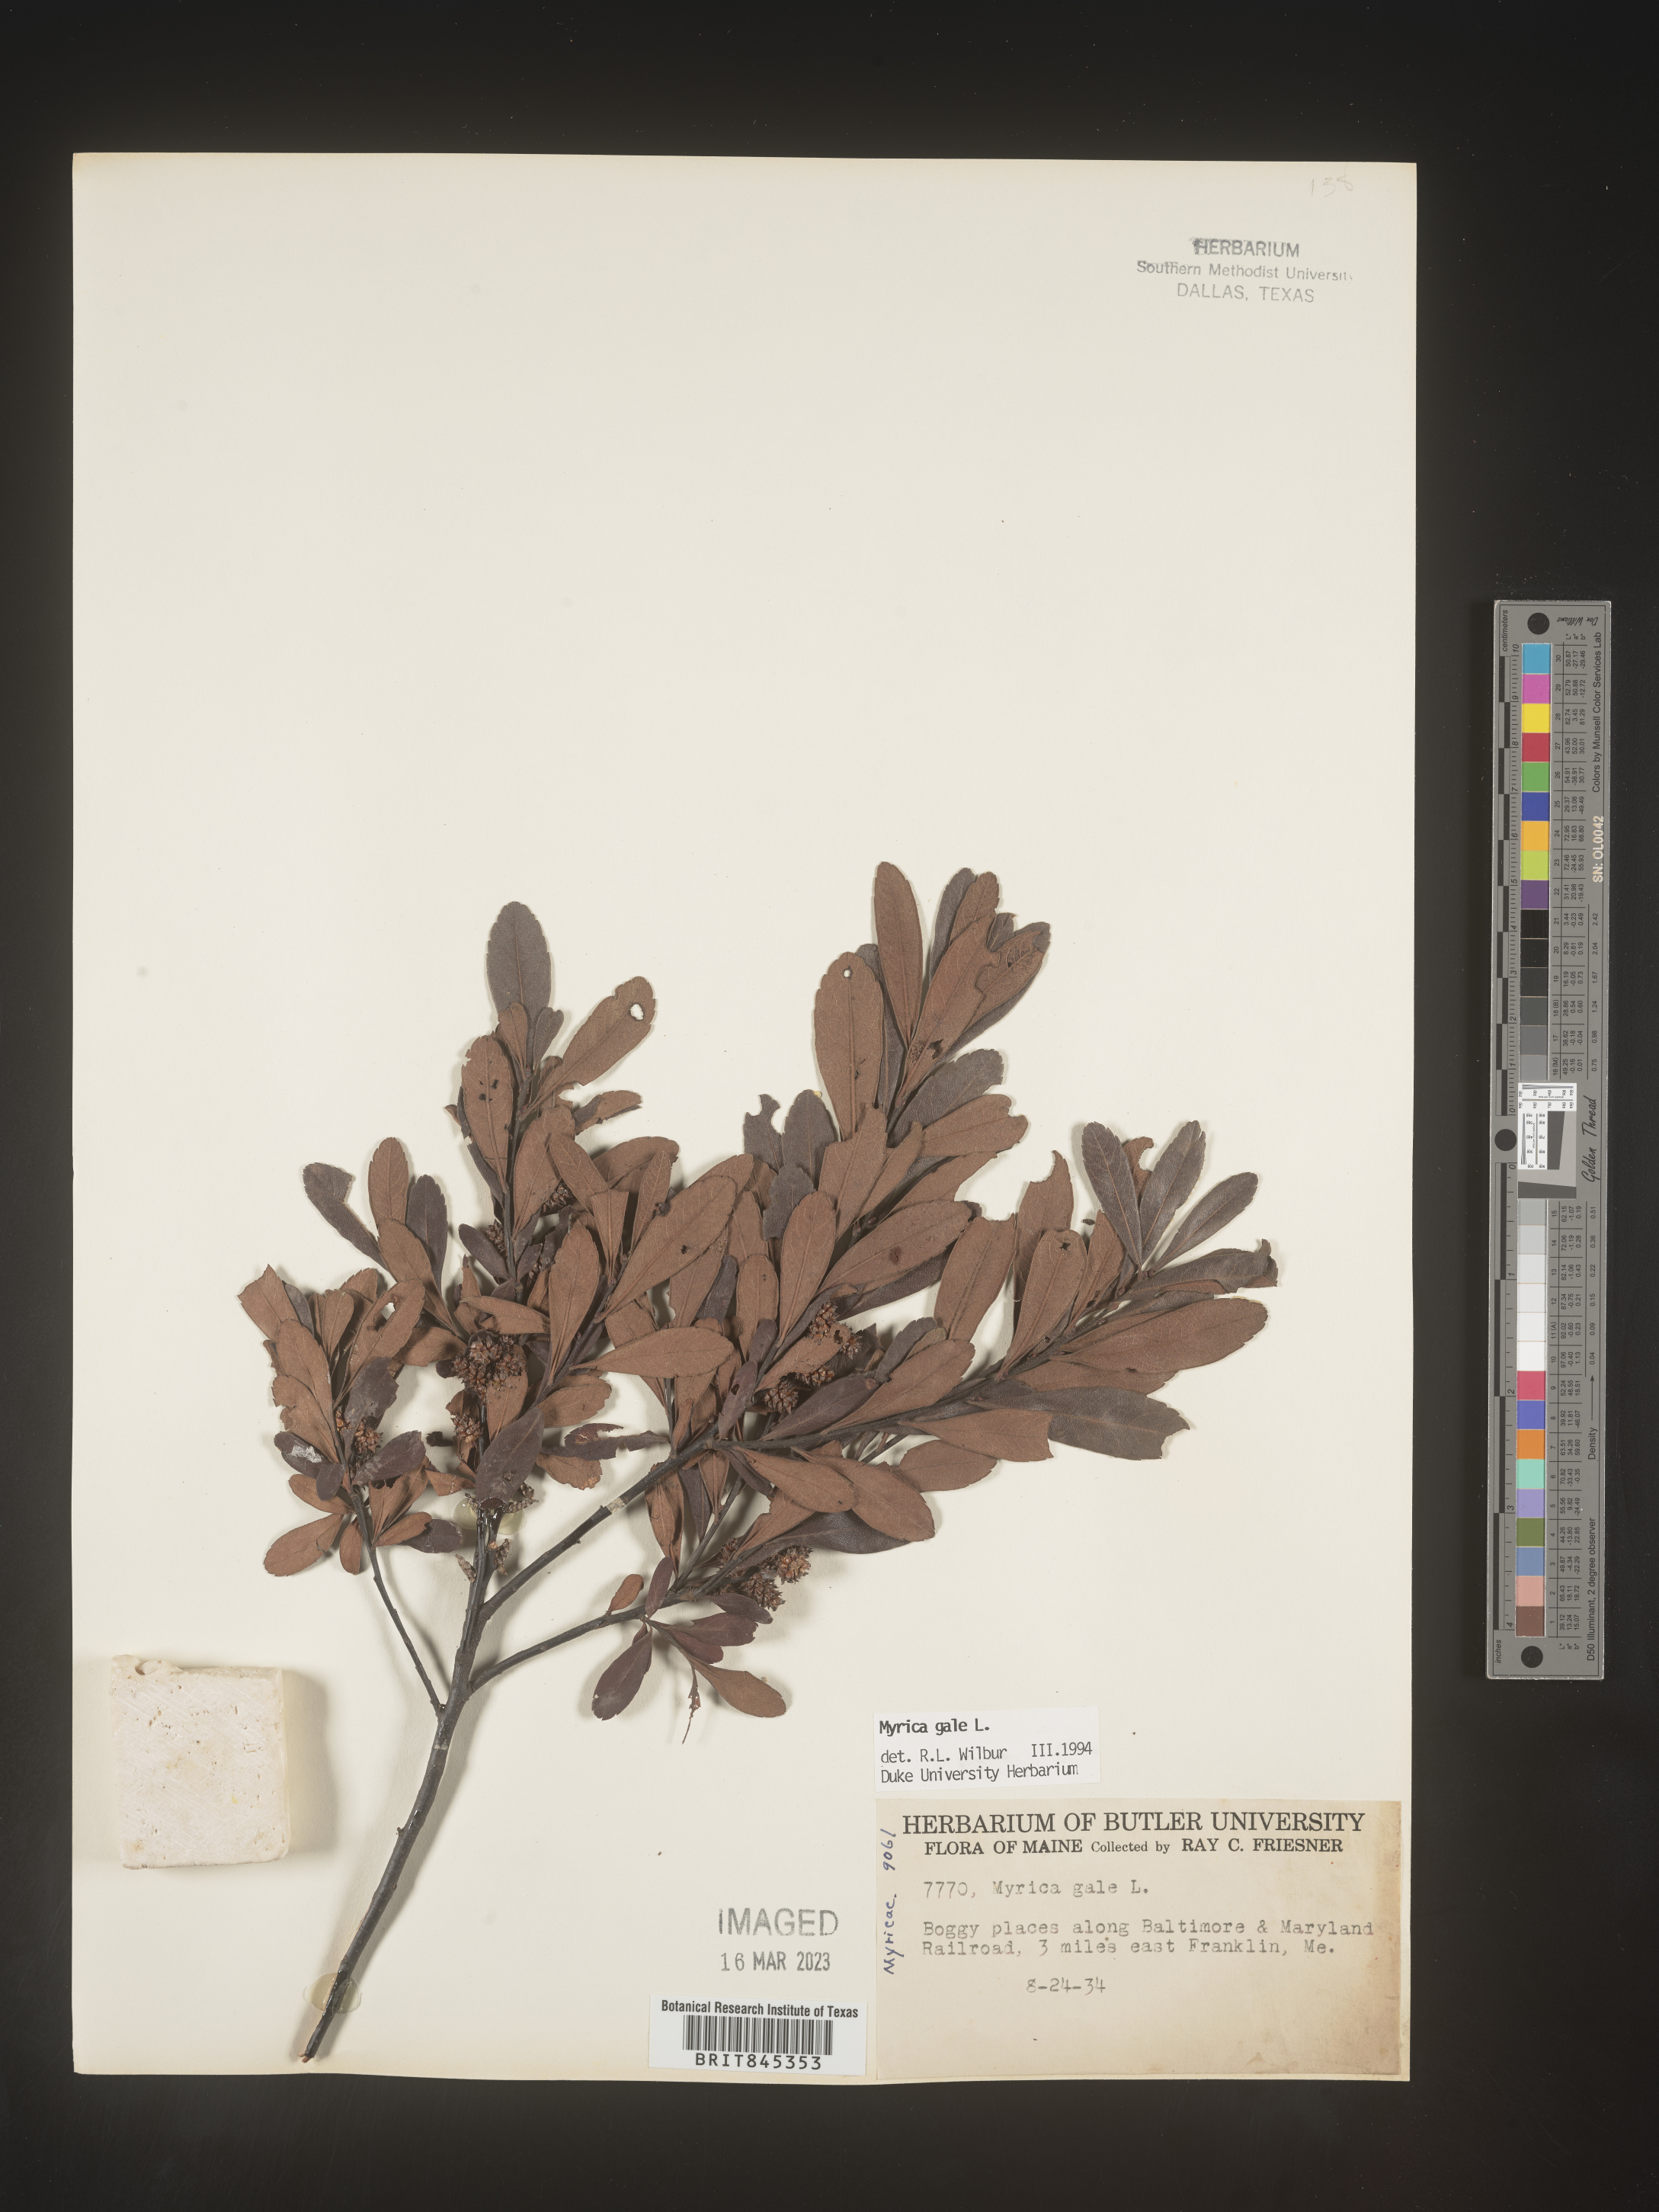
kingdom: Plantae
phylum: Tracheophyta
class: Magnoliopsida
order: Fagales
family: Myricaceae
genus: Myrica
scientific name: Myrica gale
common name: Sweet gale
